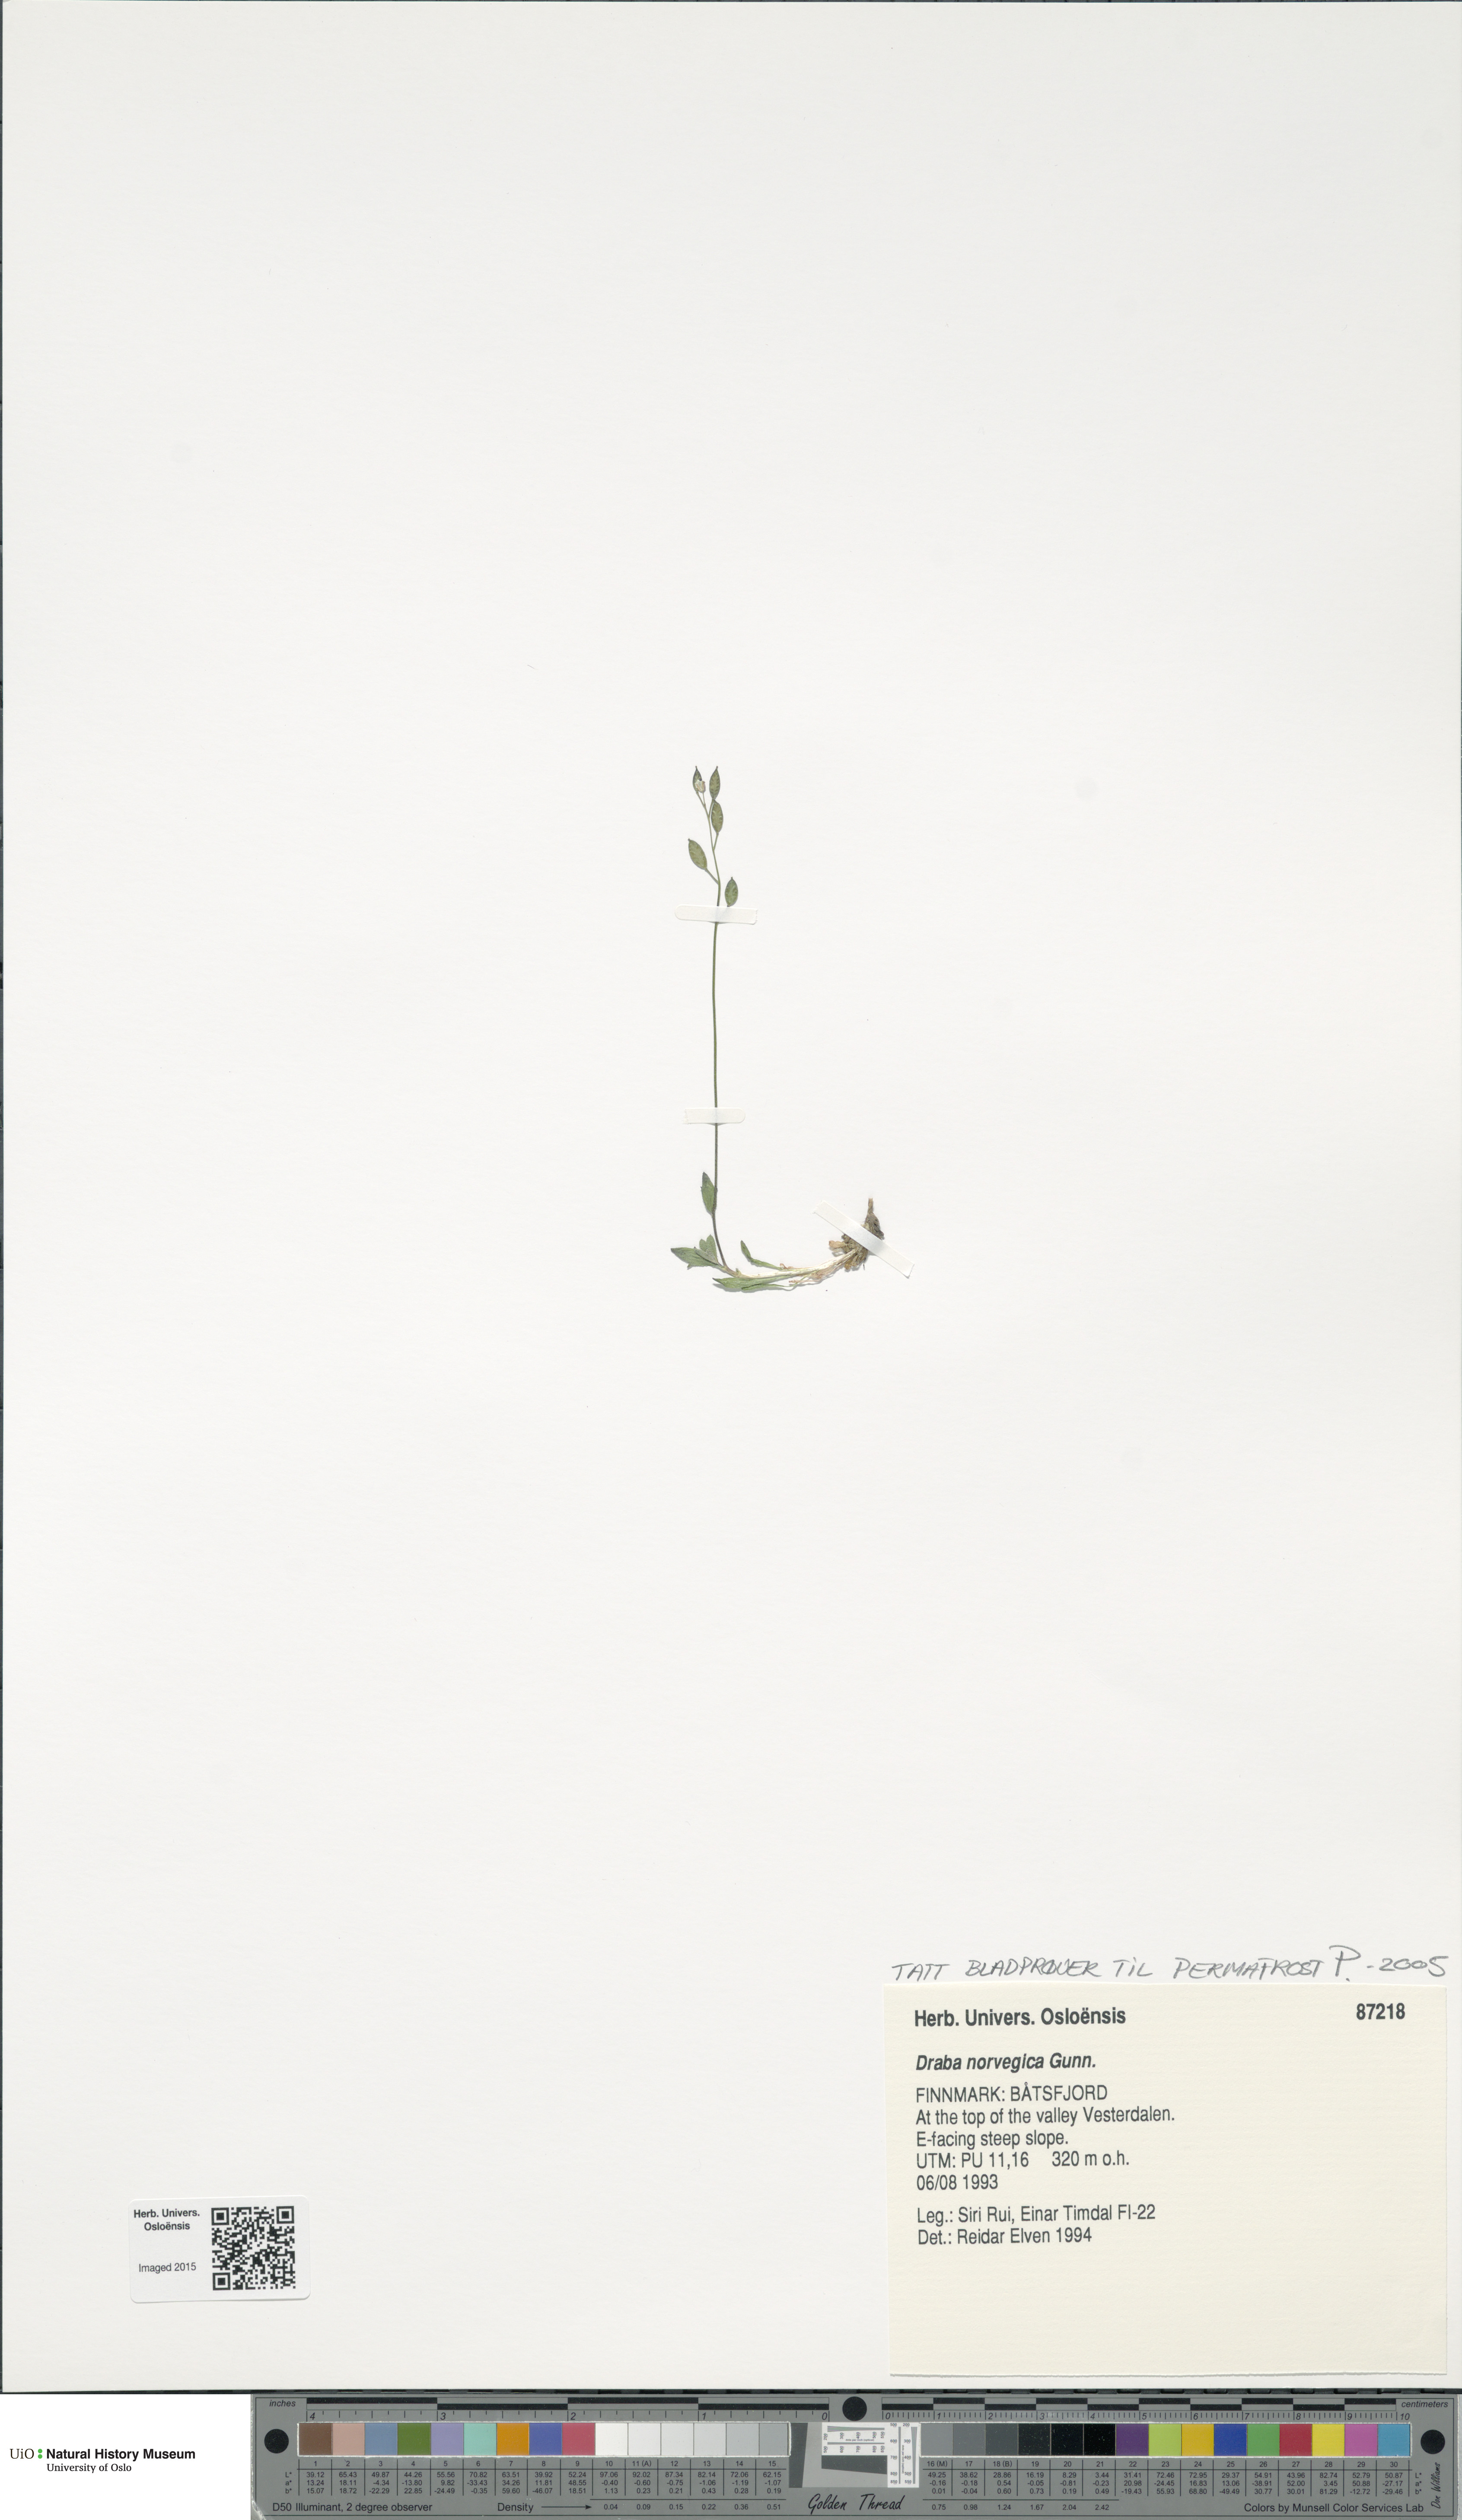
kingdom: Plantae
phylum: Tracheophyta
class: Magnoliopsida
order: Brassicales
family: Brassicaceae
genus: Draba
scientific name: Draba norvegica
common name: Rock whitlowgrass
